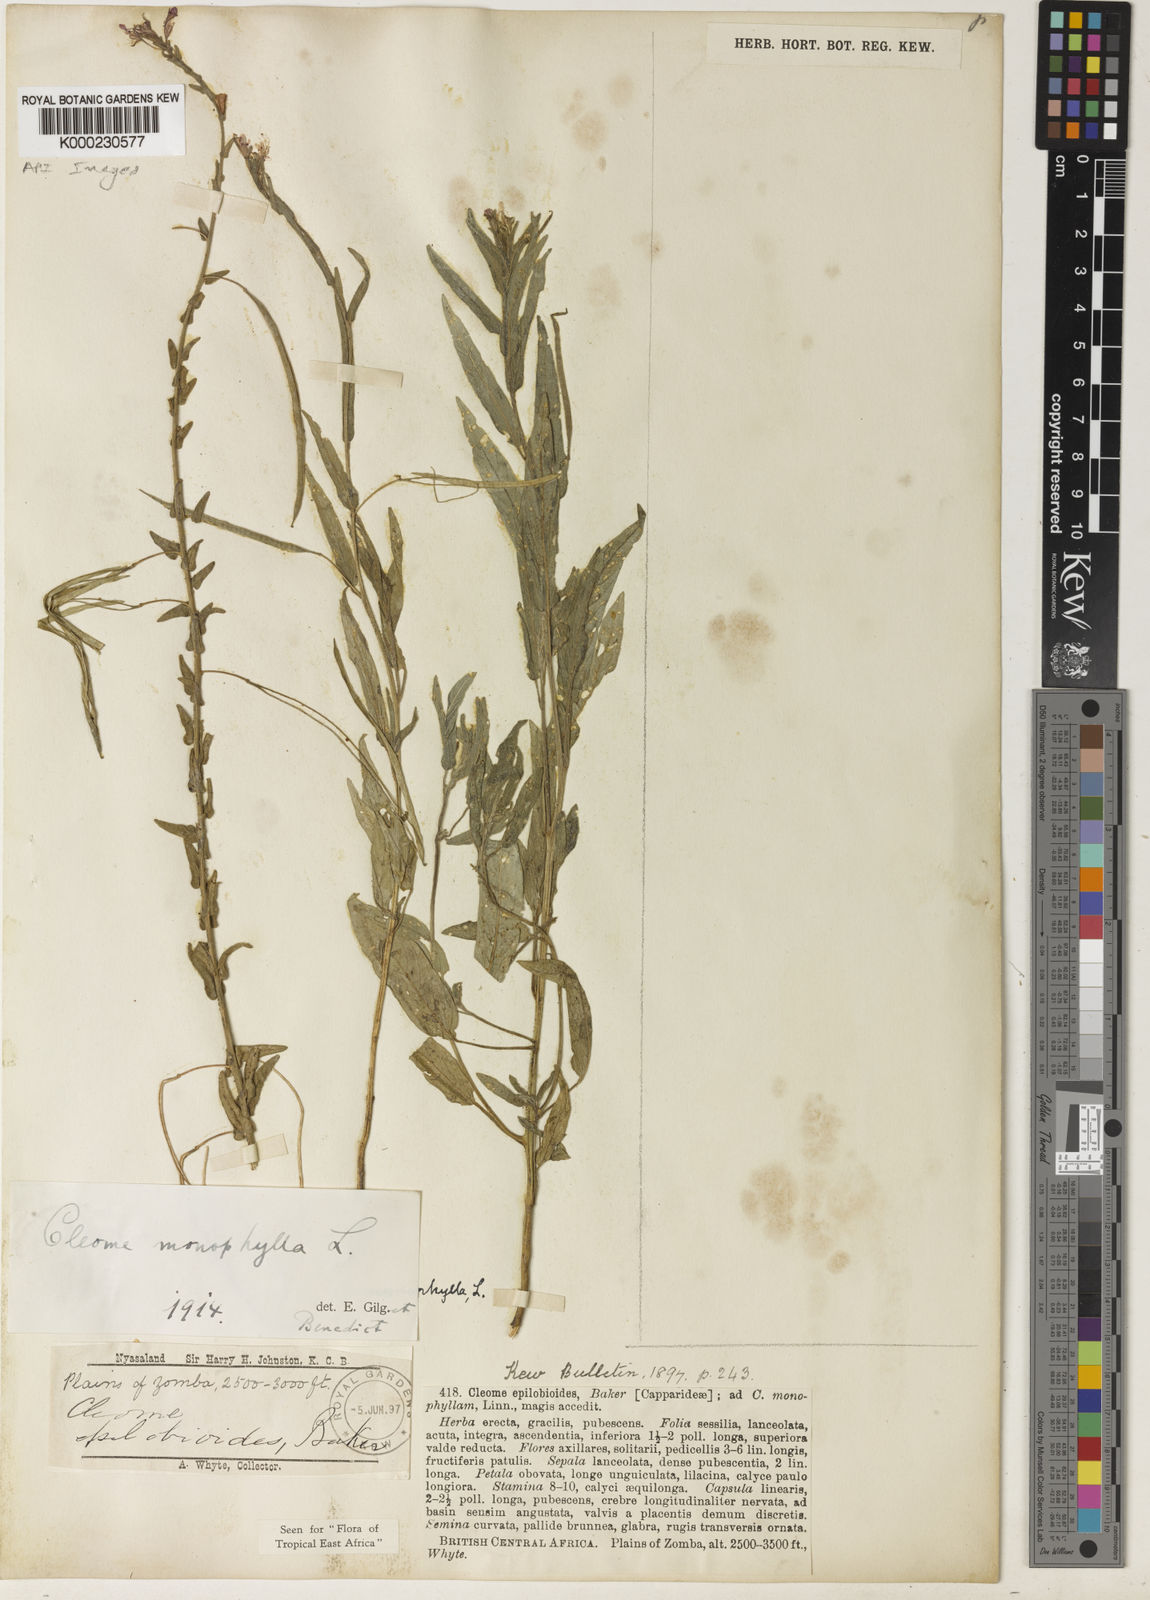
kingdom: Plantae
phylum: Tracheophyta
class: Magnoliopsida
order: Brassicales
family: Cleomaceae
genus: Sieruela
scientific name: Sieruela monophylla
